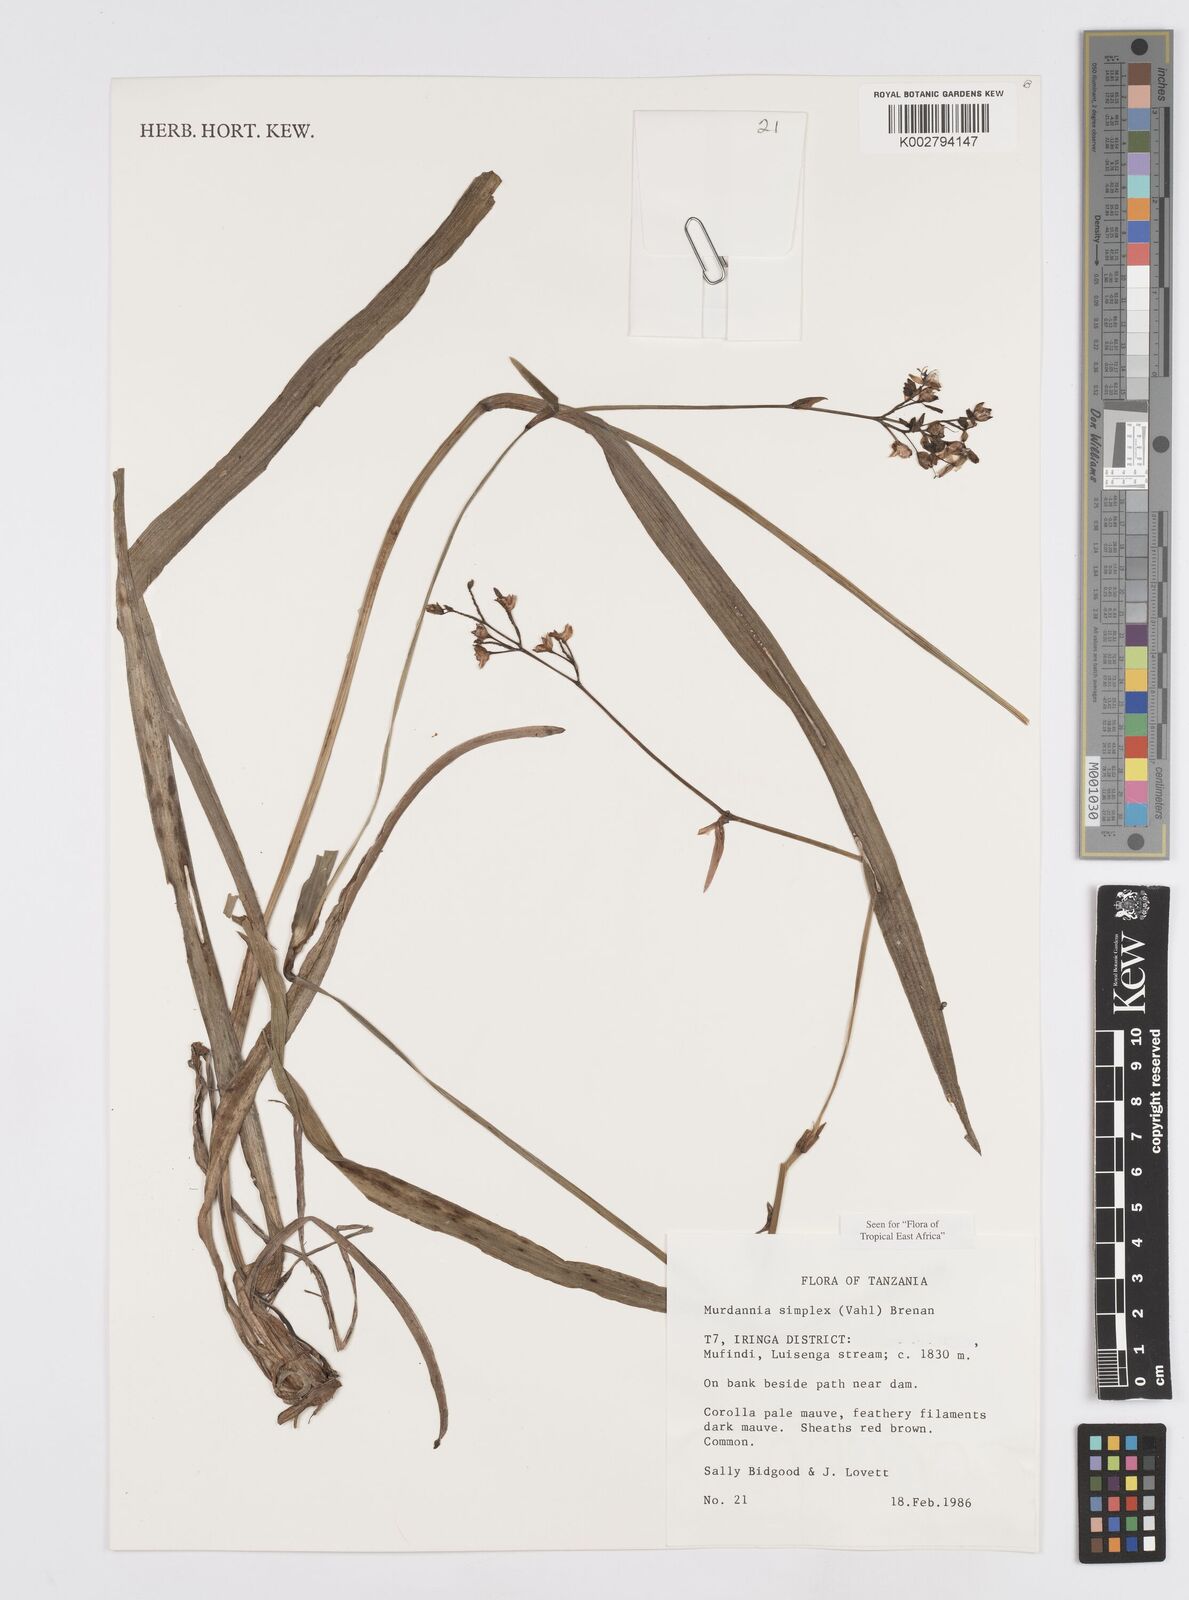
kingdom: Plantae
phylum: Tracheophyta
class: Liliopsida
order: Commelinales
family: Commelinaceae
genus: Murdannia
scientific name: Murdannia simplex
